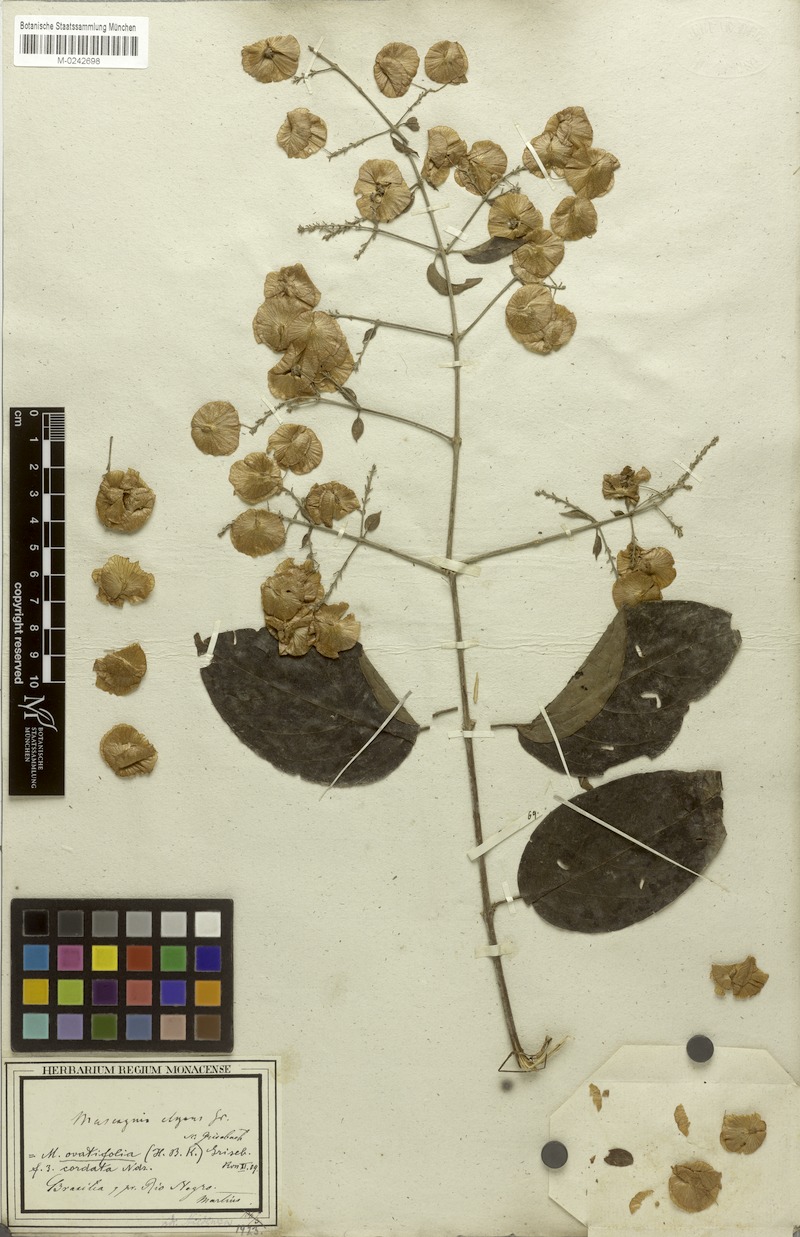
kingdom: Plantae
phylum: Tracheophyta
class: Magnoliopsida
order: Malpighiales
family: Malpighiaceae
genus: Mascagnia
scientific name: Mascagnia divaricata
